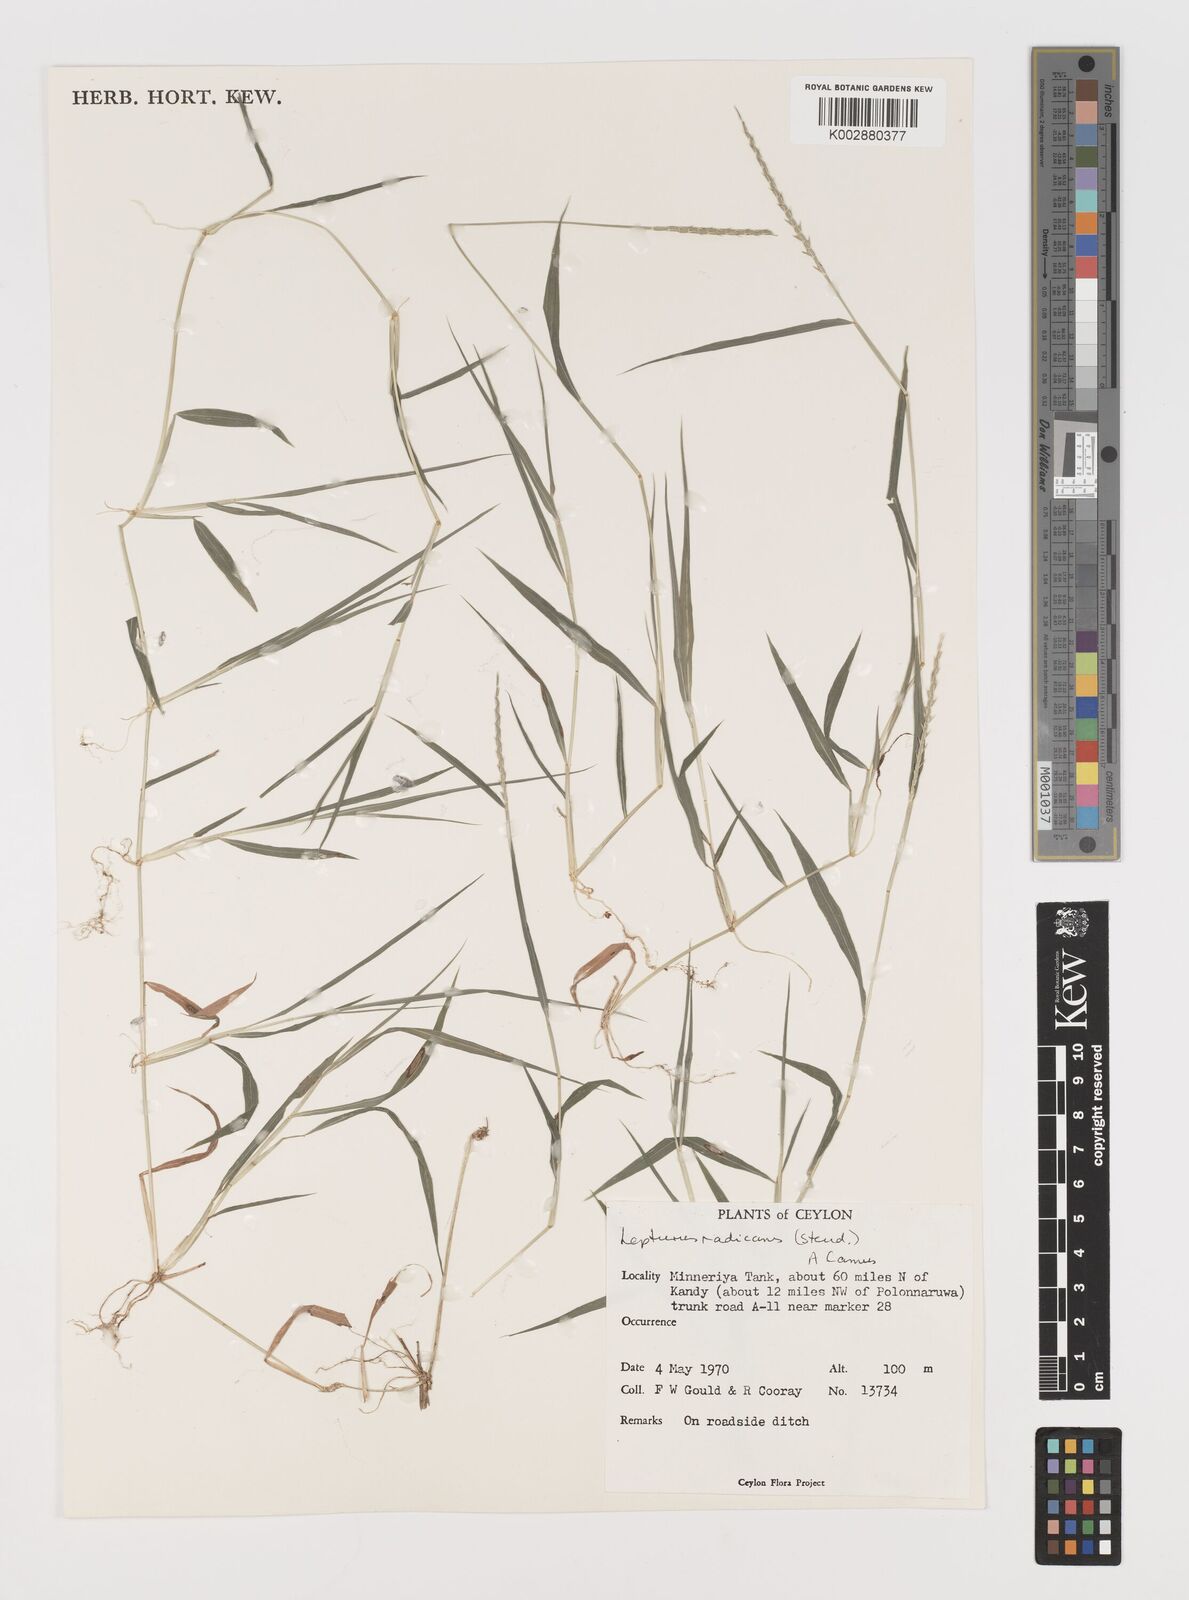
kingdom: Plantae
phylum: Tracheophyta
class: Liliopsida
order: Poales
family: Poaceae
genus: Lepturus
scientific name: Lepturus radicans
